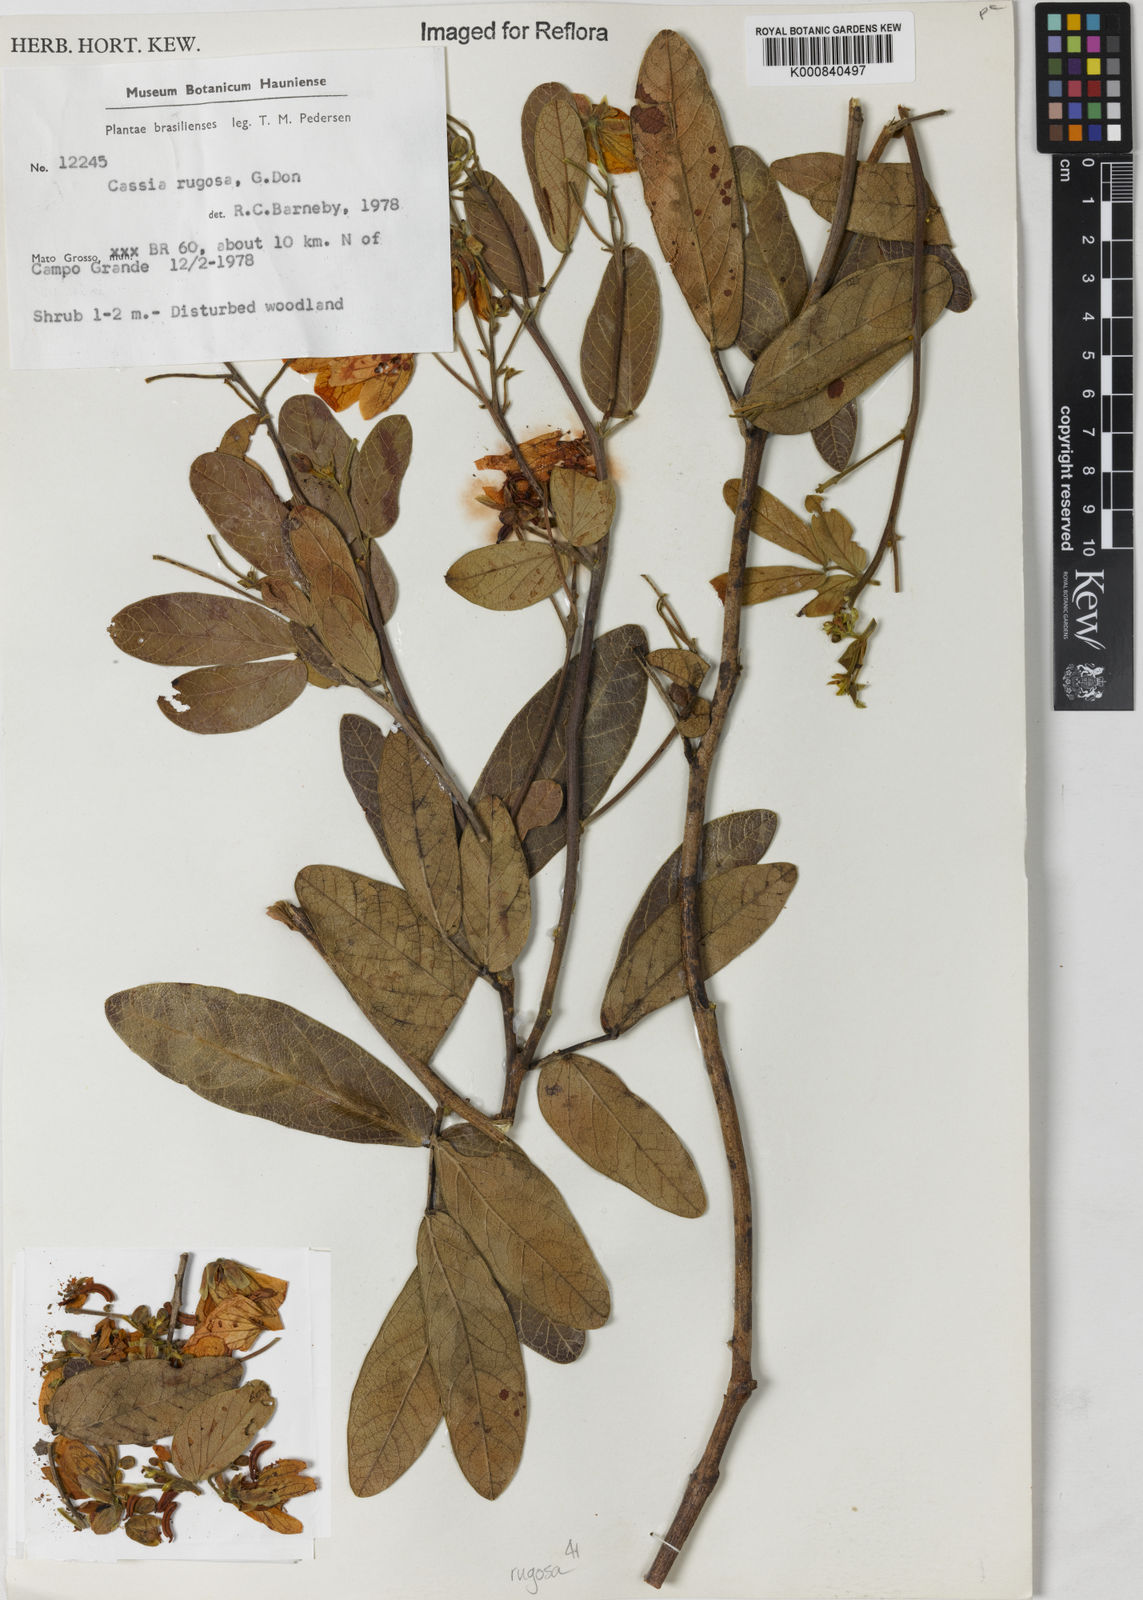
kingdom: Plantae
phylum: Tracheophyta
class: Magnoliopsida
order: Fabales
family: Fabaceae
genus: Senna
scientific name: Senna rugosa
